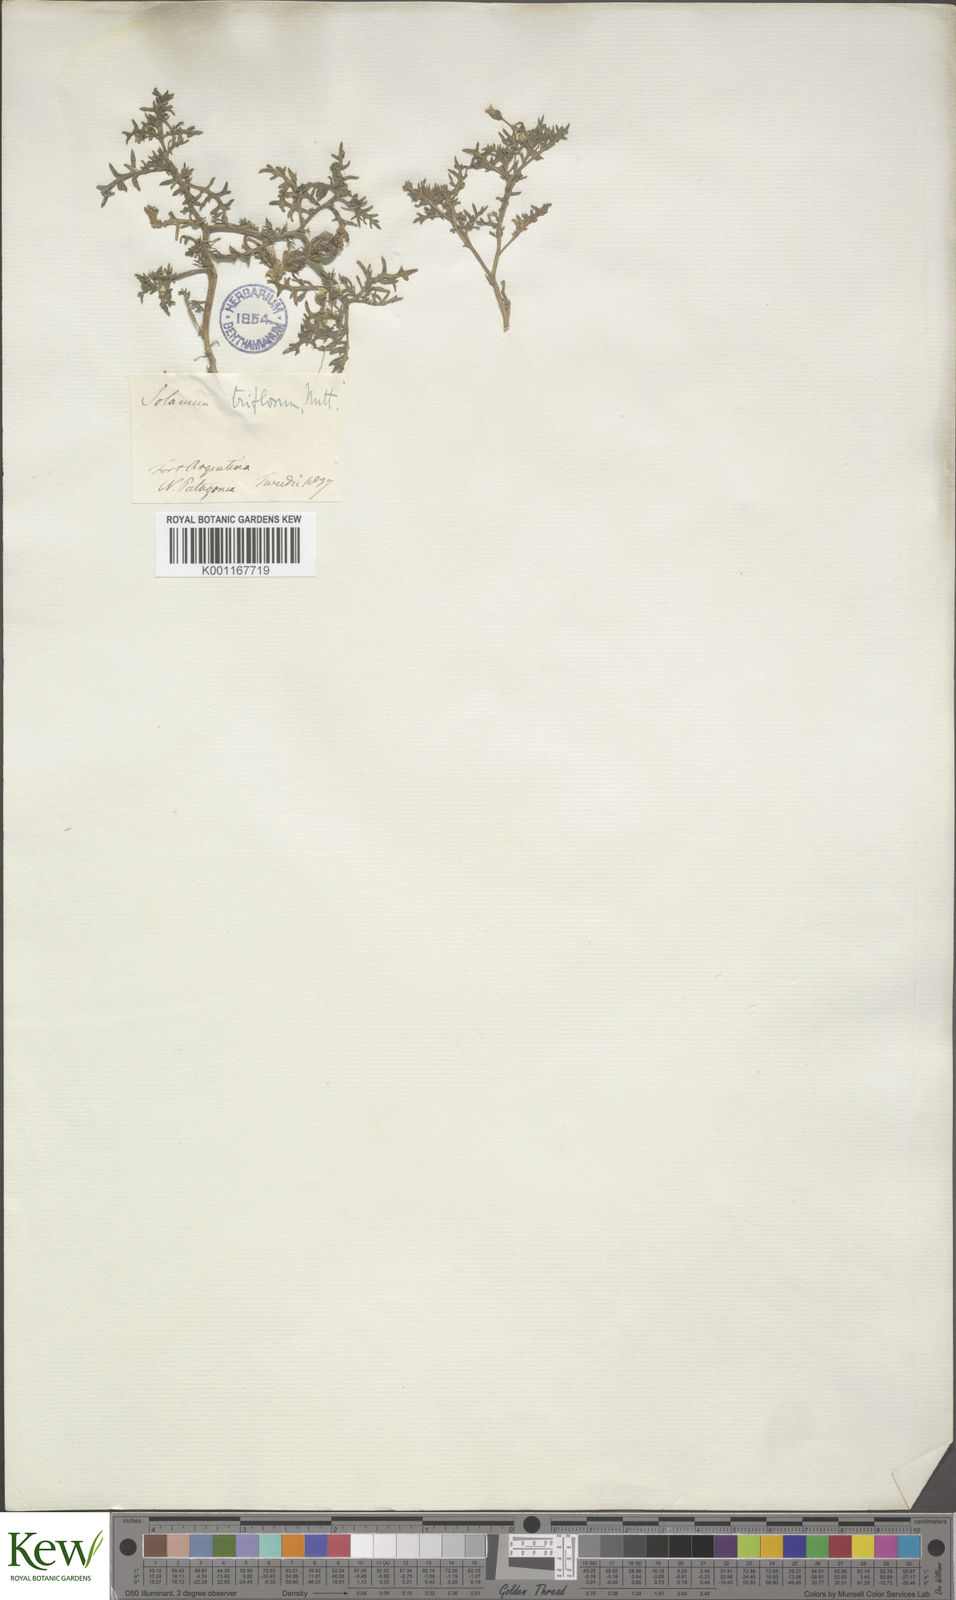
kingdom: Plantae
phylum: Tracheophyta
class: Magnoliopsida
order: Solanales
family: Solanaceae
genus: Solanum
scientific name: Solanum triflorum
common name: Small nightshade
